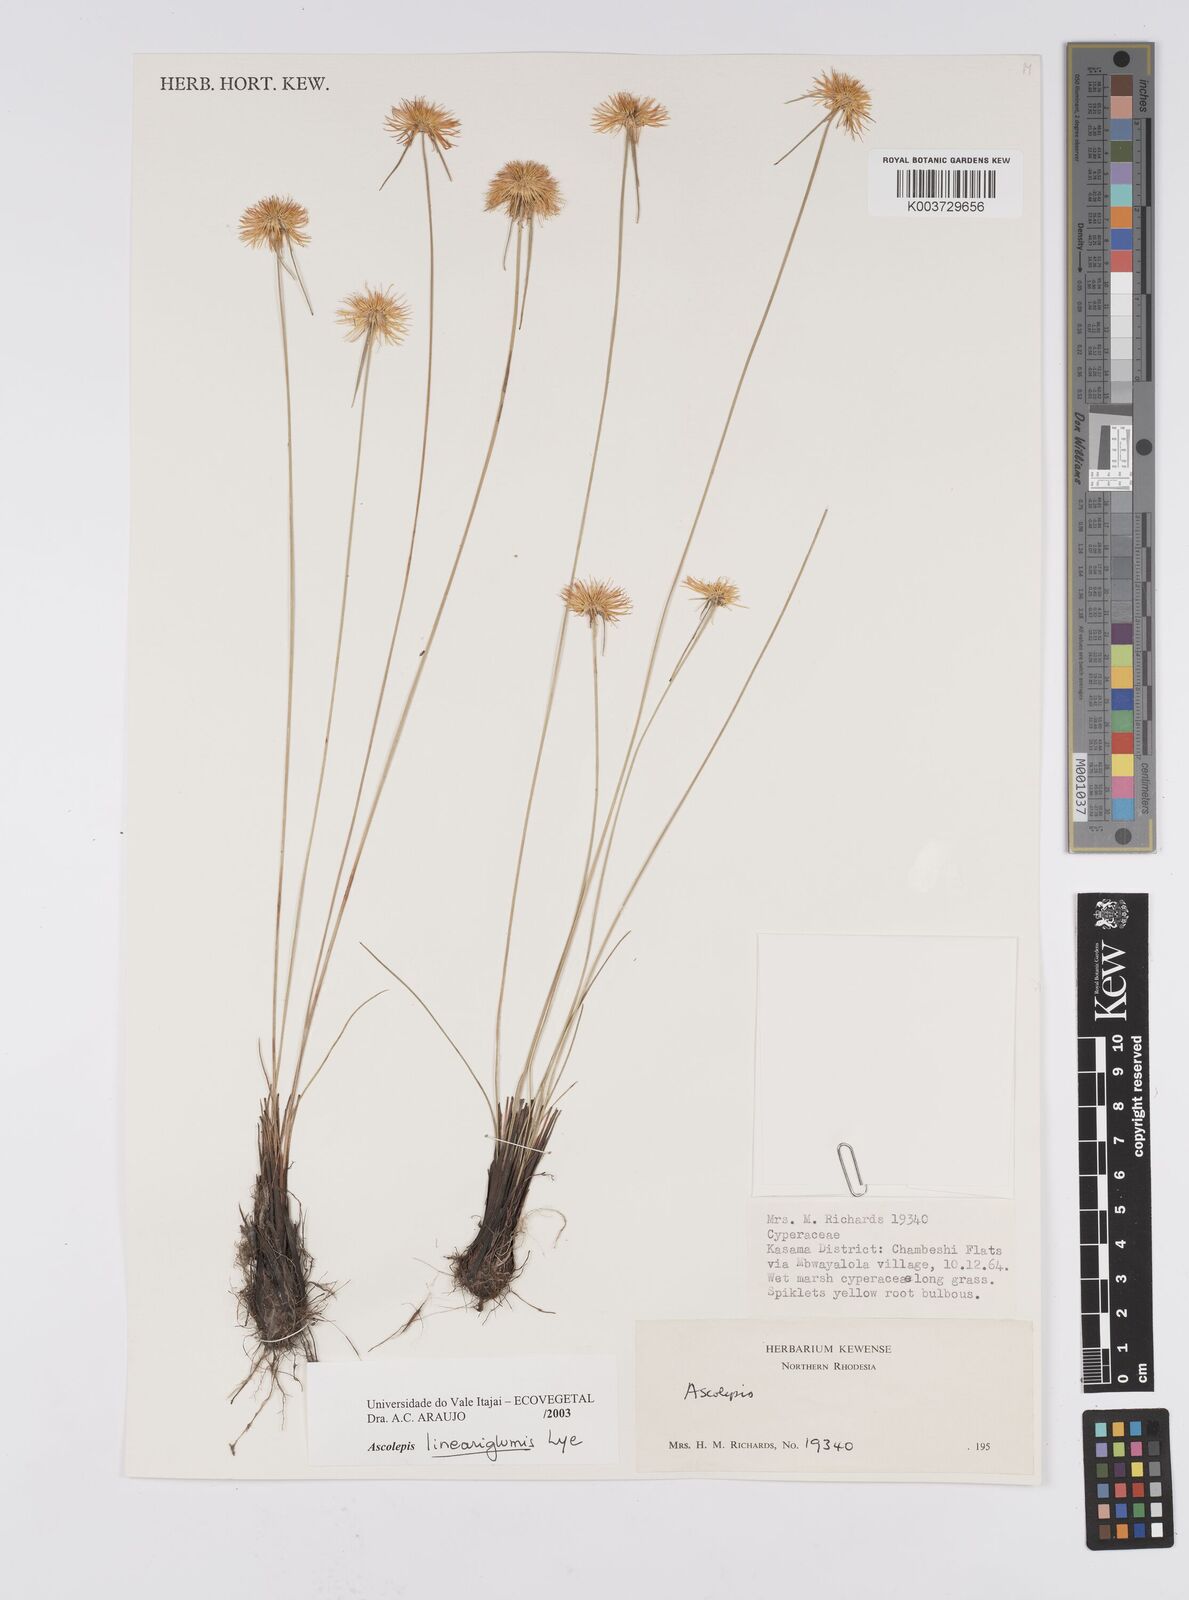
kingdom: Plantae
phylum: Tracheophyta
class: Liliopsida
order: Poales
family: Cyperaceae
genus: Cyperus
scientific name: Cyperus
